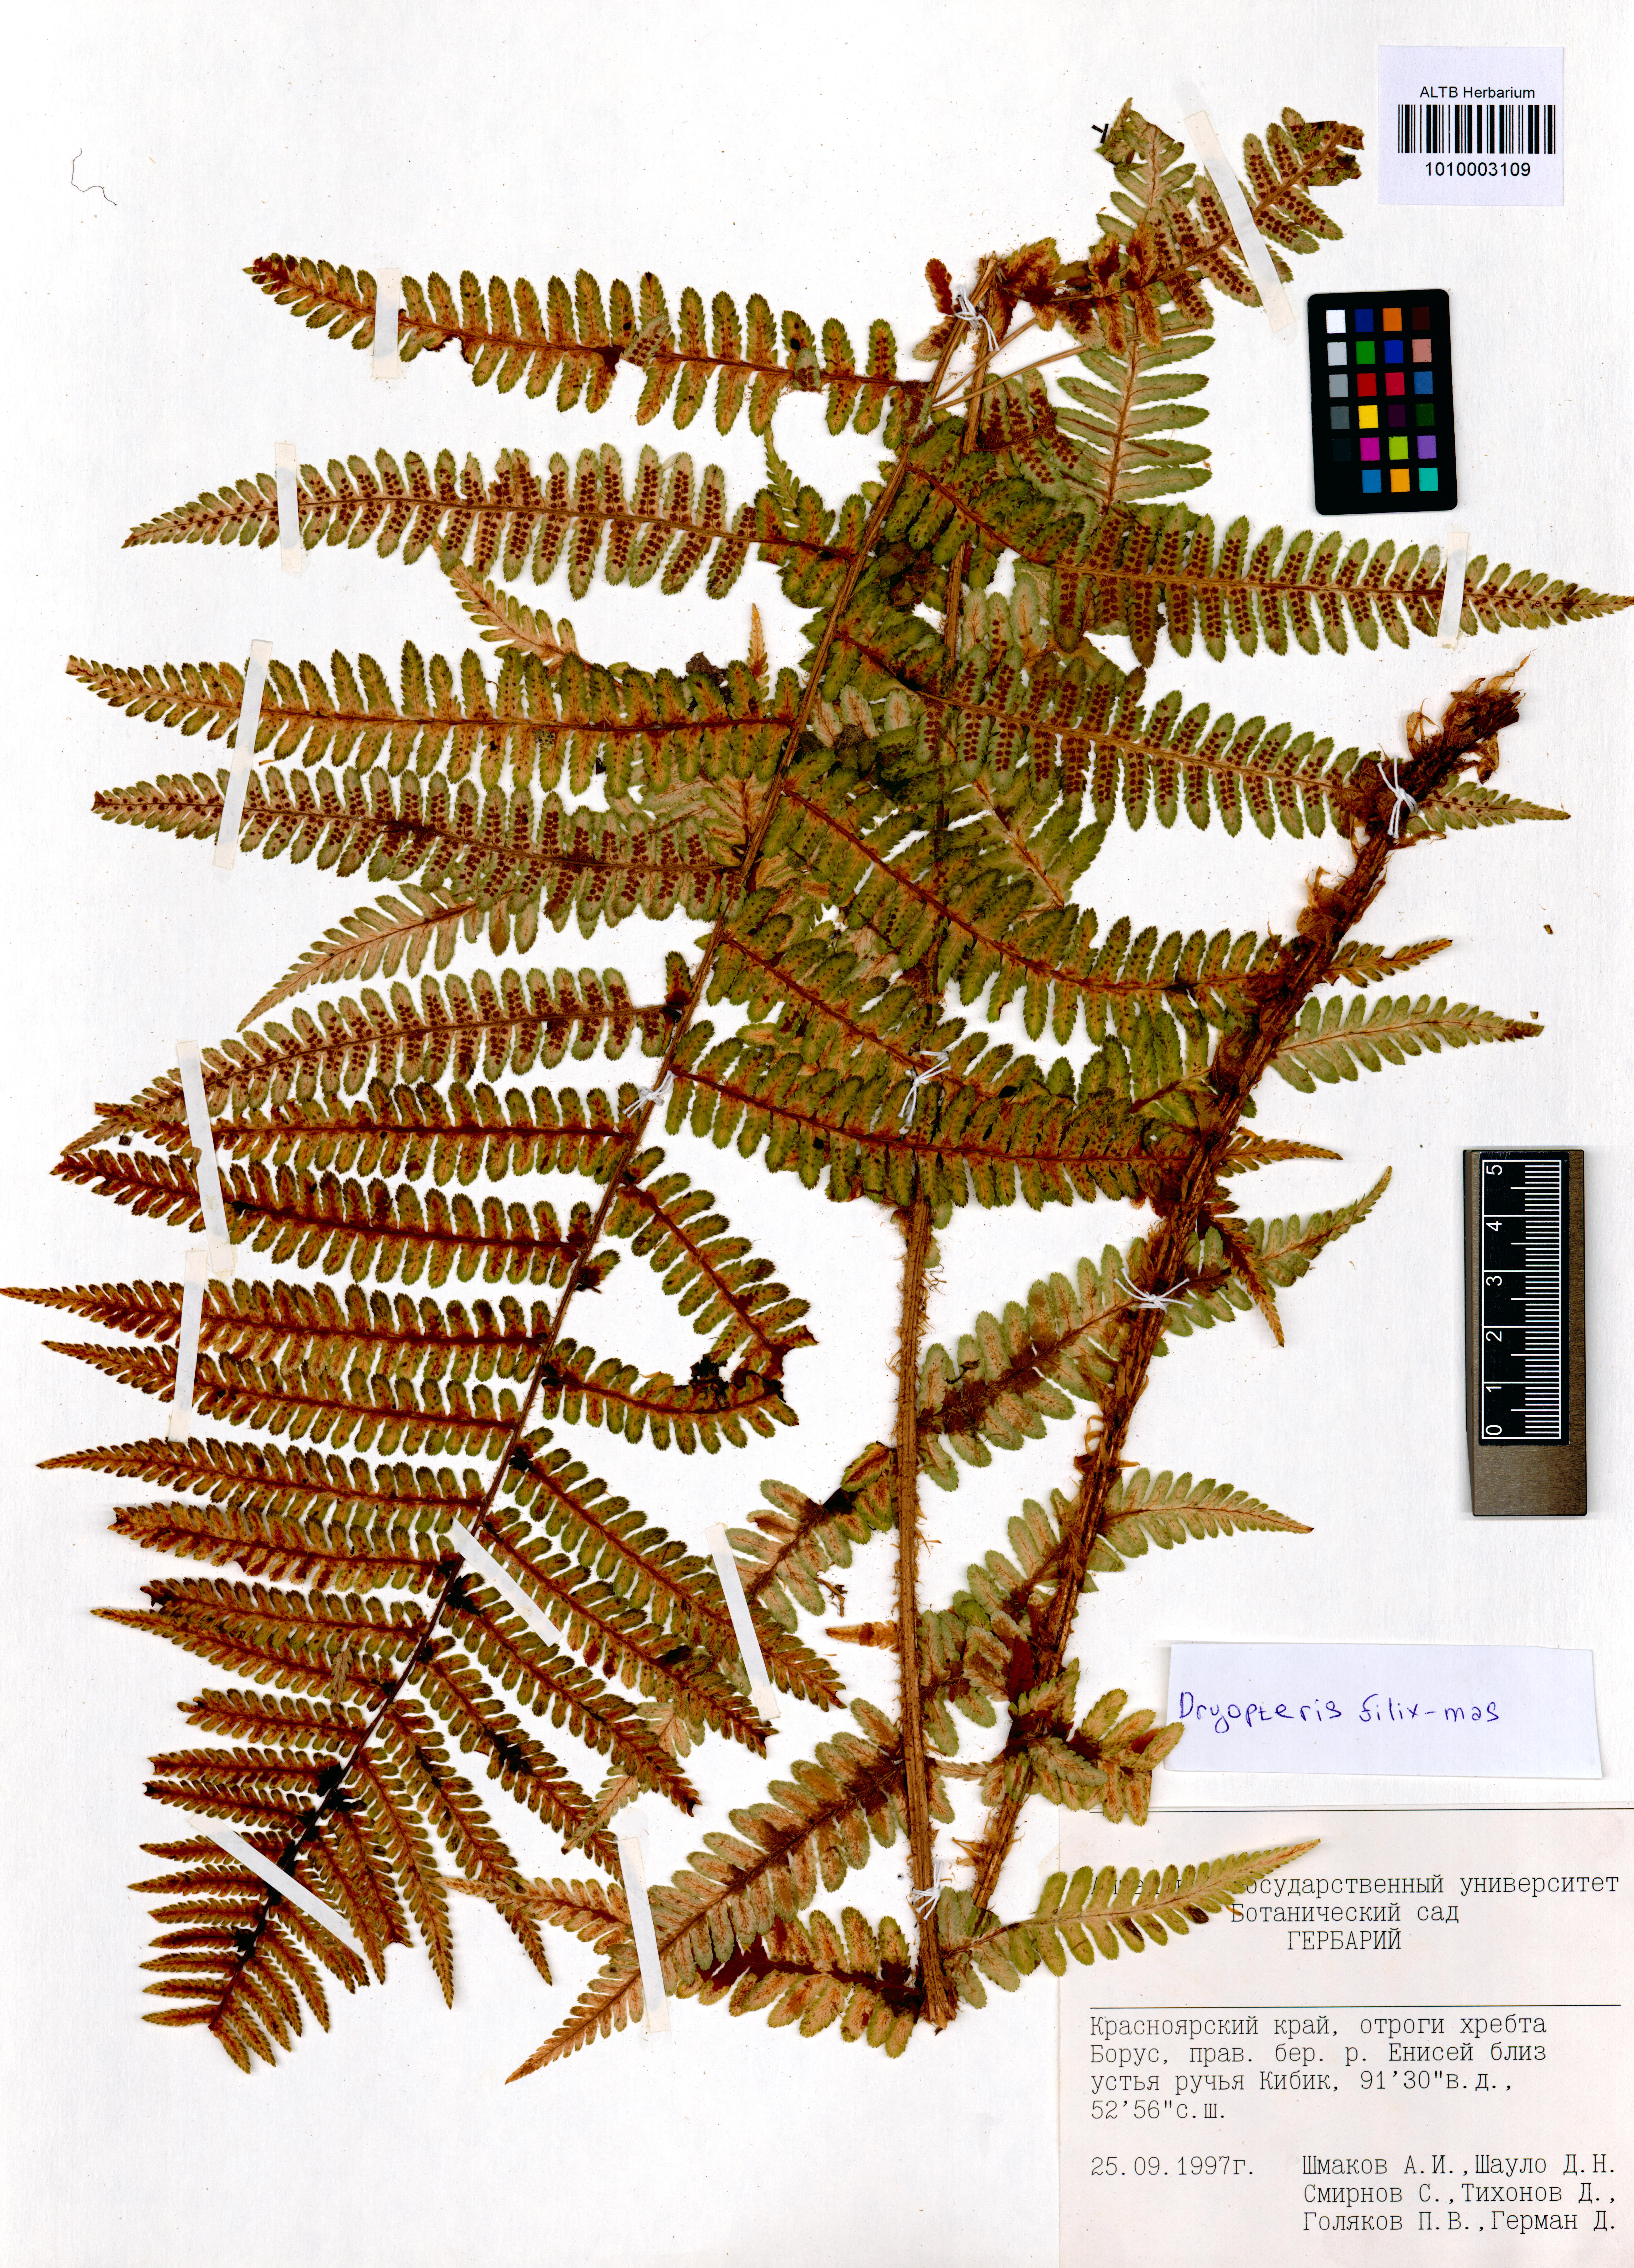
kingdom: Plantae
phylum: Tracheophyta
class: Polypodiopsida
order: Polypodiales
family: Dryopteridaceae
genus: Dryopteris
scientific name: Dryopteris filix-mas
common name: Male fern
